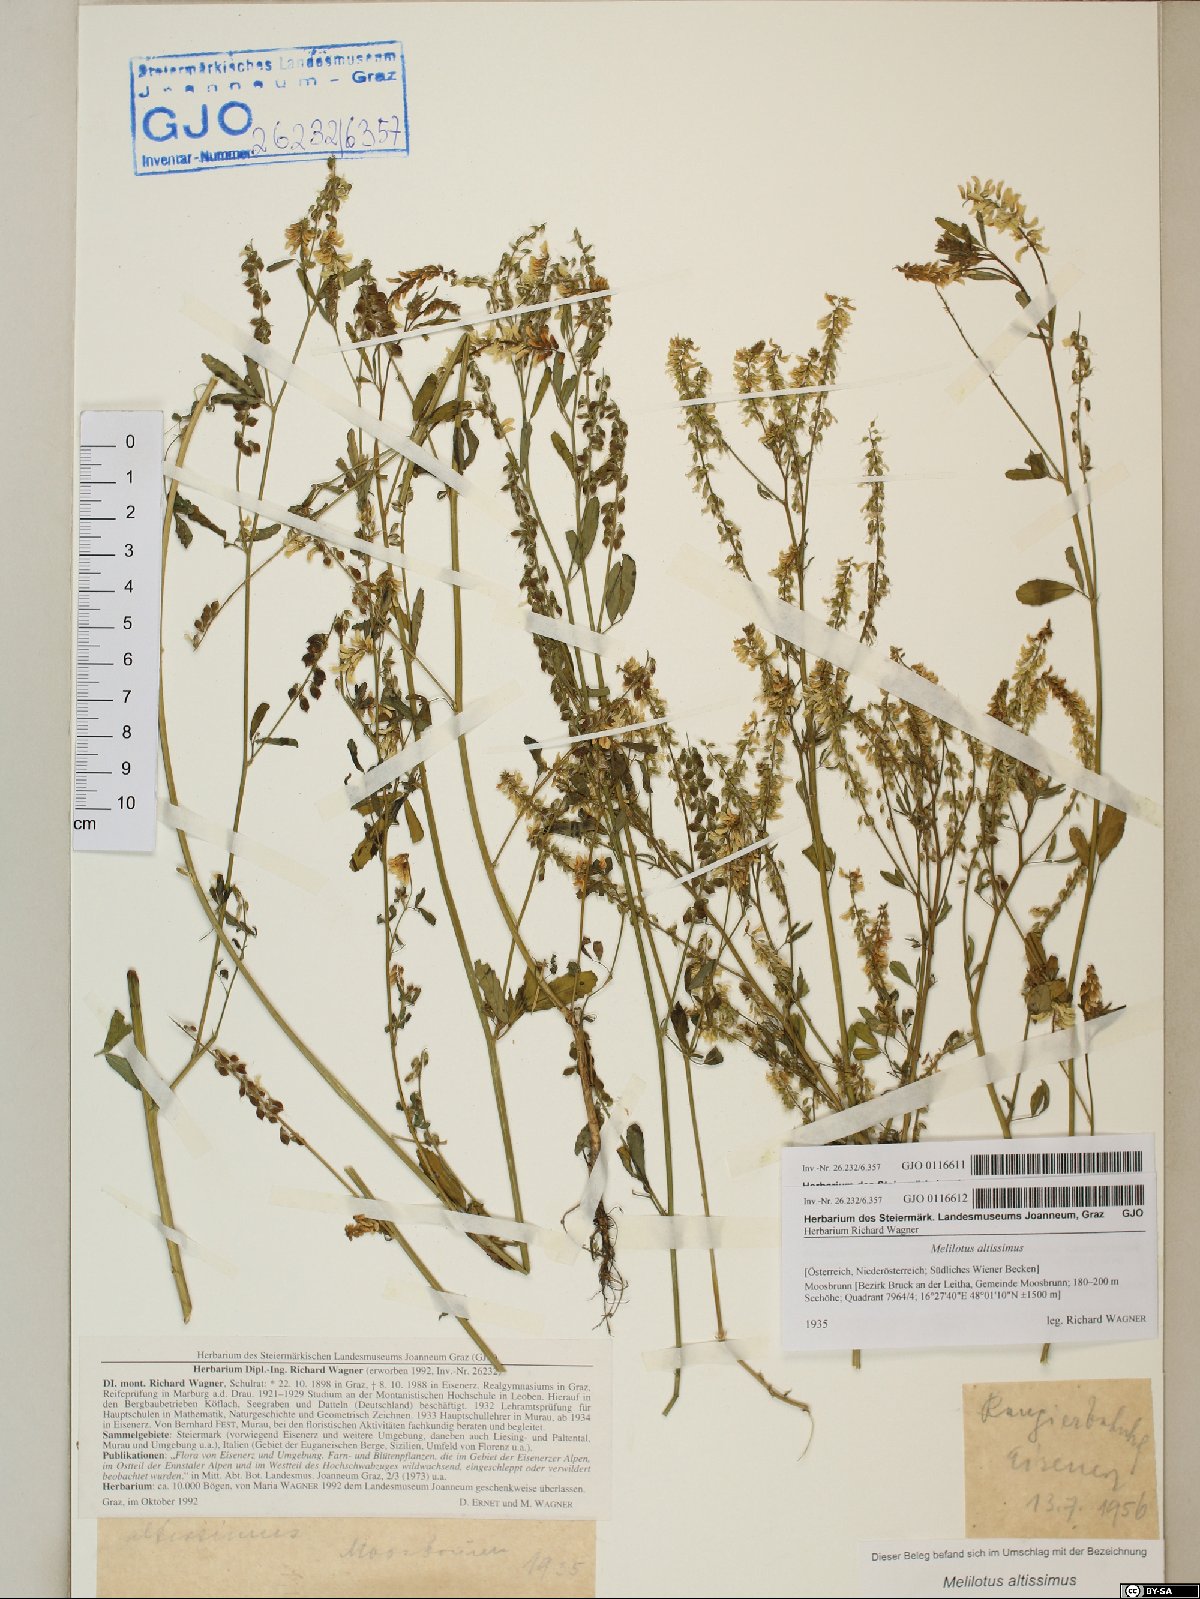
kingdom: Plantae
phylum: Tracheophyta
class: Magnoliopsida
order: Fabales
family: Fabaceae
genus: Melilotus
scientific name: Melilotus altissimus
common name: Tall melilot
